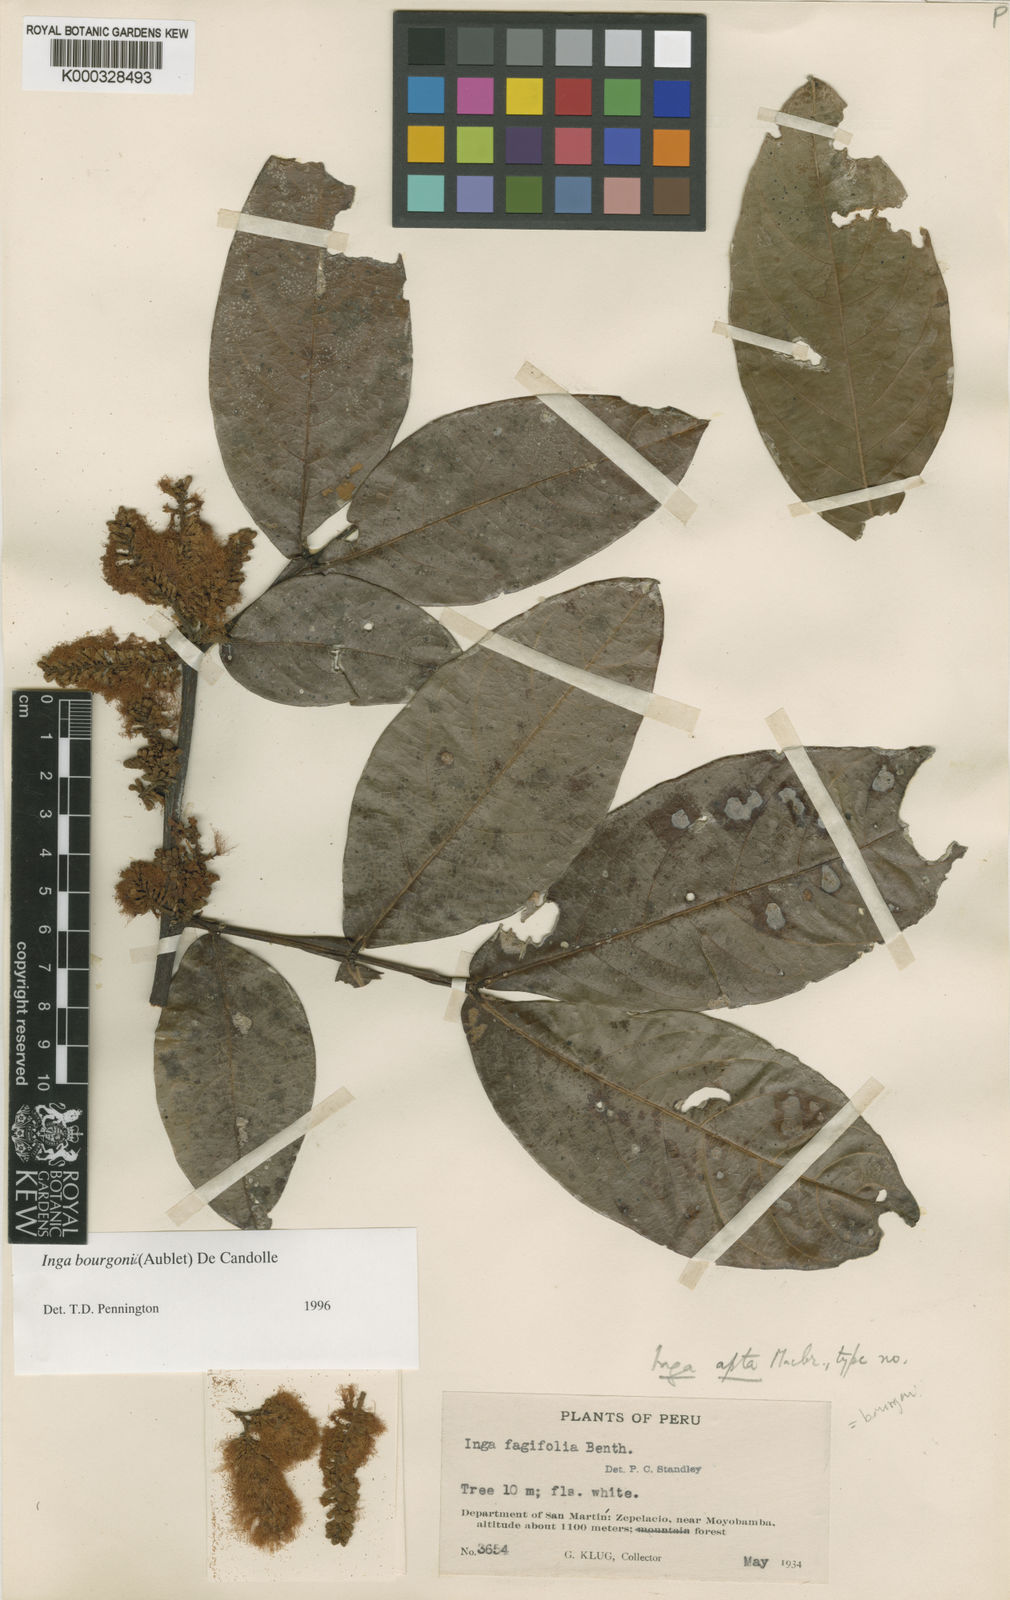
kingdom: Plantae
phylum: Tracheophyta
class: Magnoliopsida
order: Fabales
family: Fabaceae
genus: Inga
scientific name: Inga bourgoni
